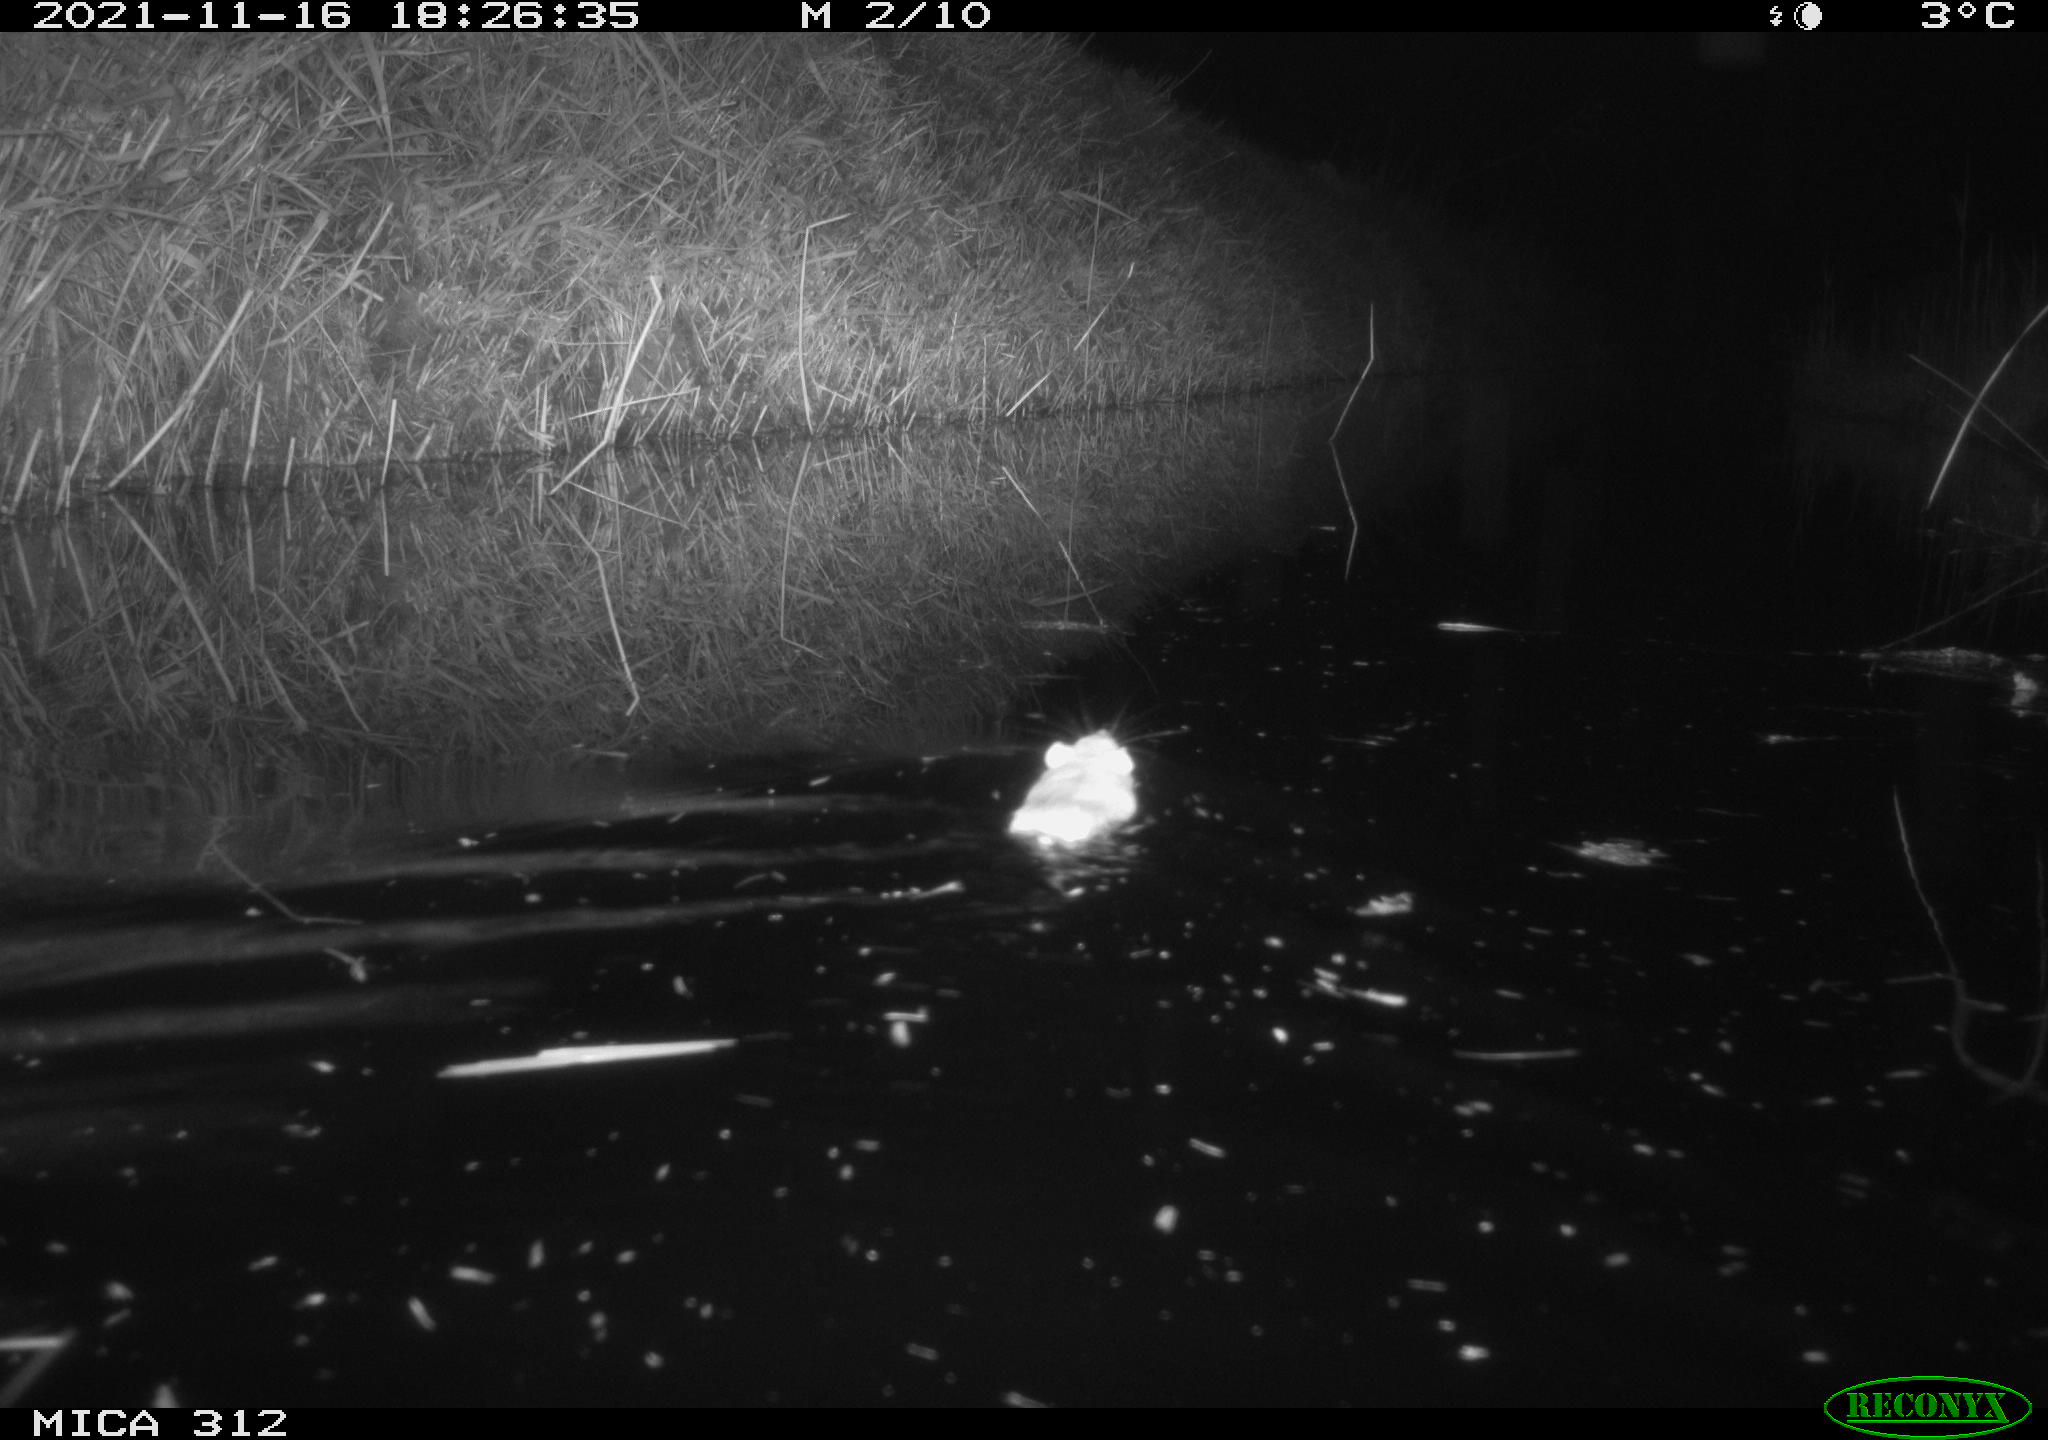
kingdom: Animalia
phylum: Chordata
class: Mammalia
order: Rodentia
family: Muridae
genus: Rattus
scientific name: Rattus norvegicus
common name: Brown rat
